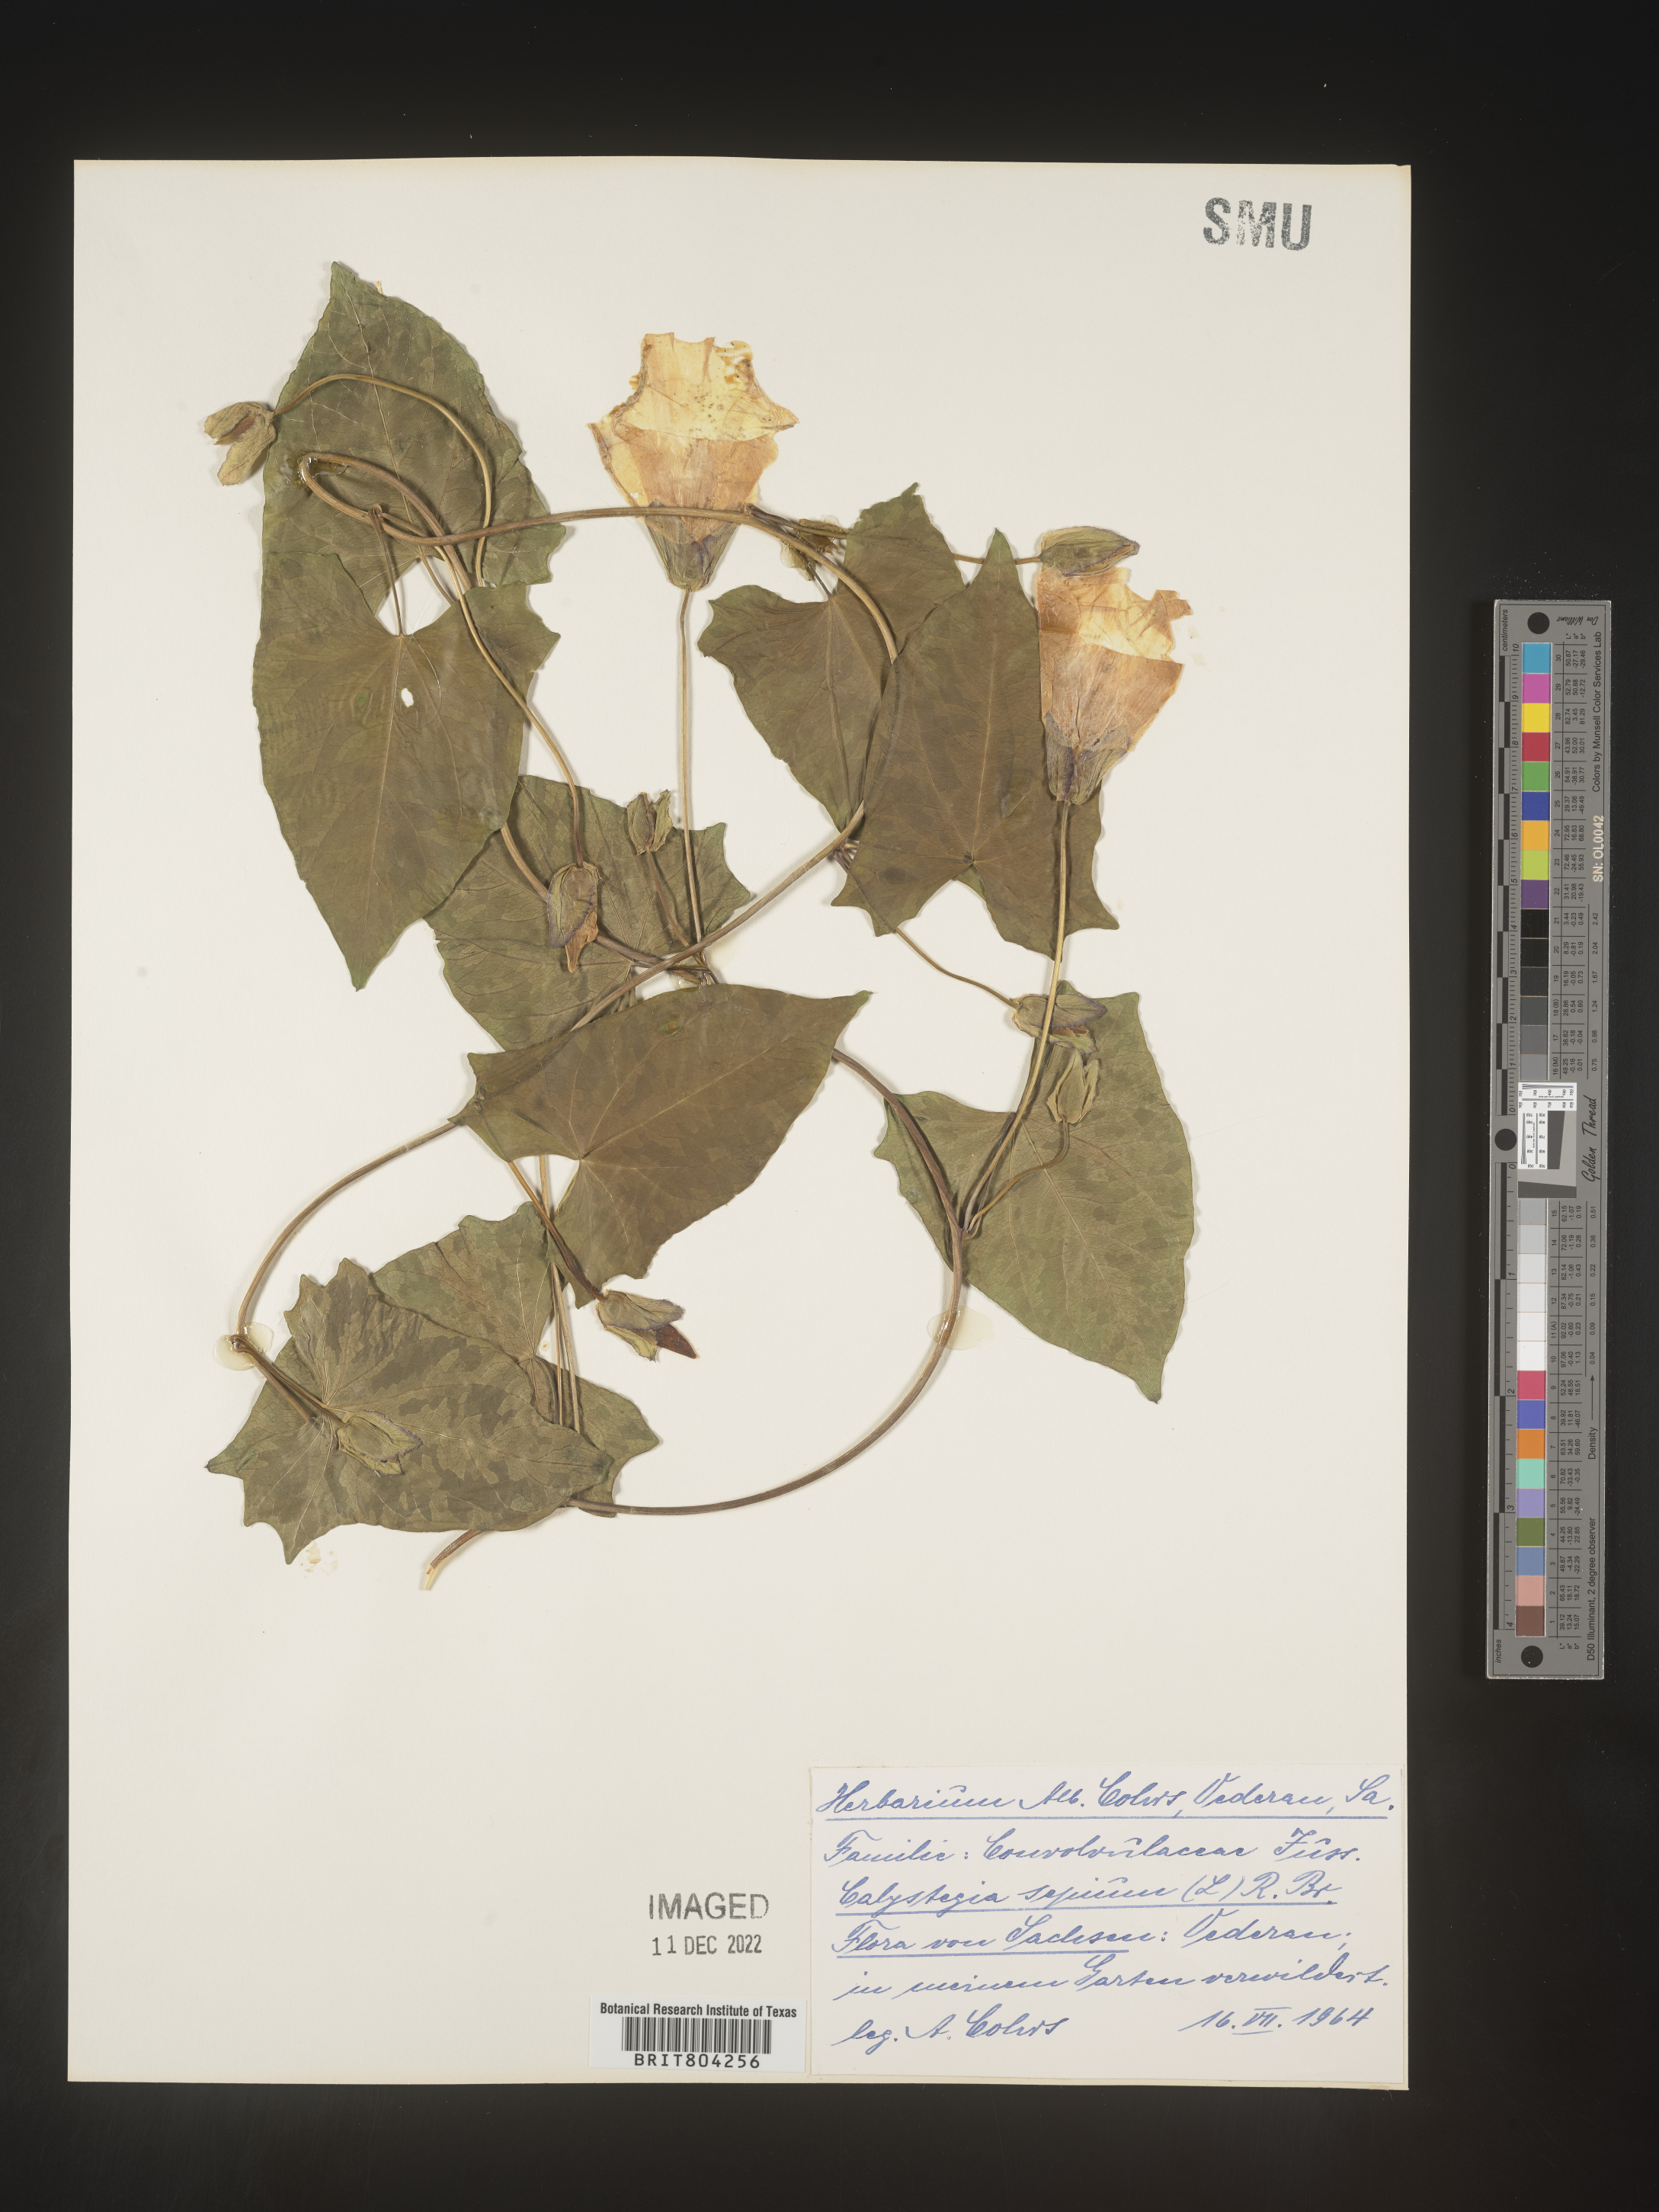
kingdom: Plantae
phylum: Tracheophyta
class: Magnoliopsida
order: Solanales
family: Convolvulaceae
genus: Calystegia
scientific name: Calystegia
